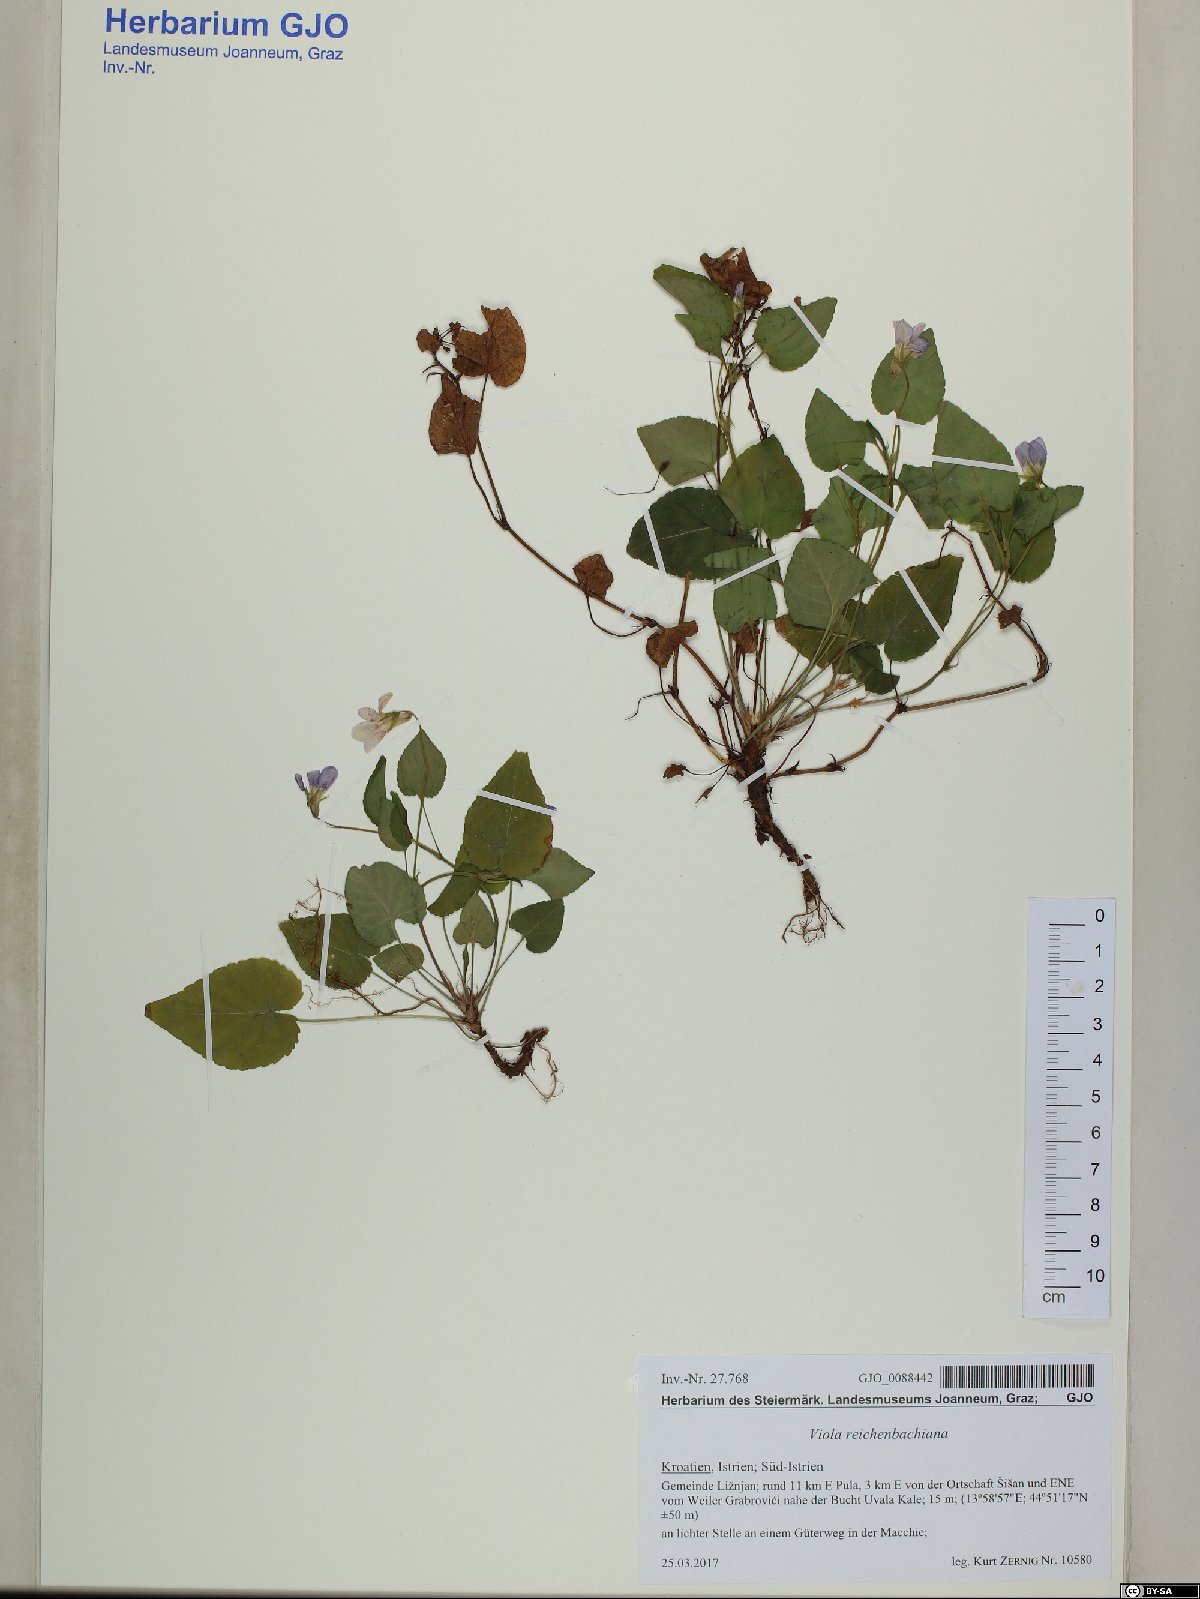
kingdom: Plantae
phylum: Tracheophyta
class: Magnoliopsida
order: Malpighiales
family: Violaceae
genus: Viola
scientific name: Viola reichenbachiana
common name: Early dog-violet
